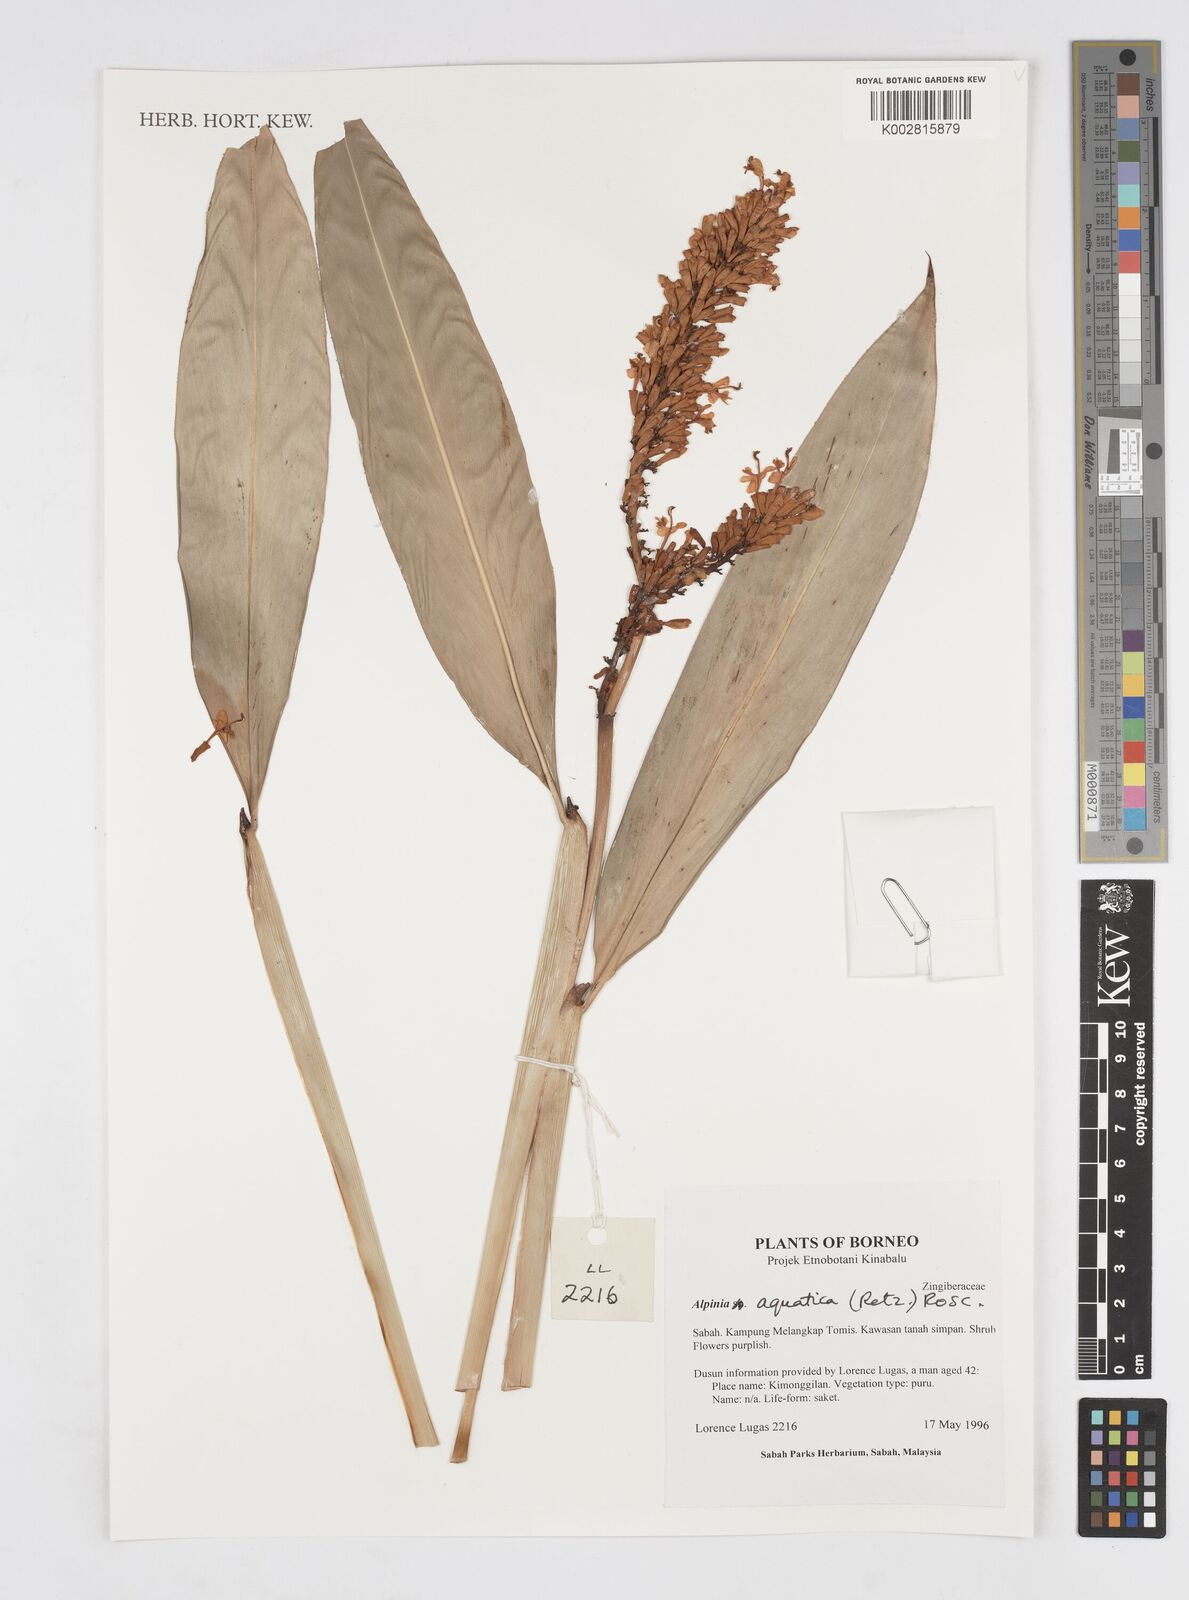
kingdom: Plantae
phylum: Tracheophyta
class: Liliopsida
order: Zingiberales
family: Zingiberaceae
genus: Alpinia
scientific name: Alpinia aquatica
